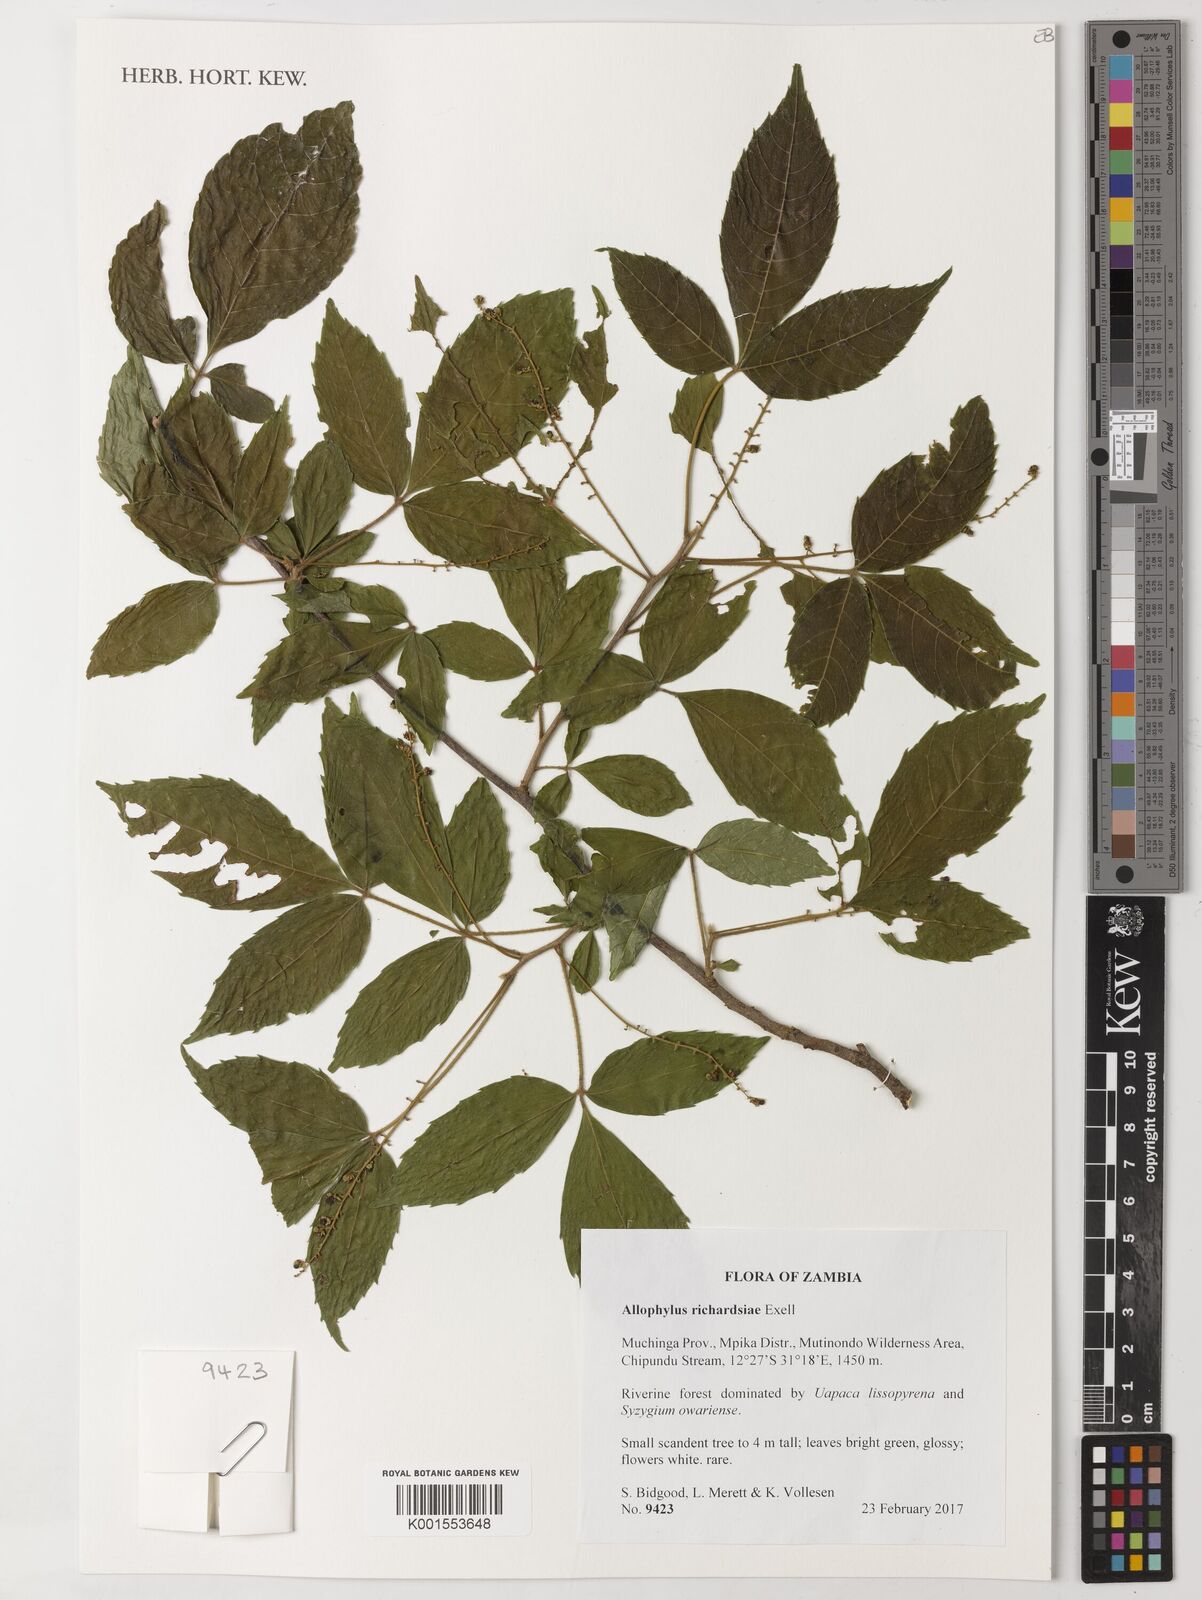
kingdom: Plantae
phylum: Tracheophyta
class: Magnoliopsida
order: Sapindales
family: Sapindaceae
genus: Allophylus
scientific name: Allophylus chaunostachys
